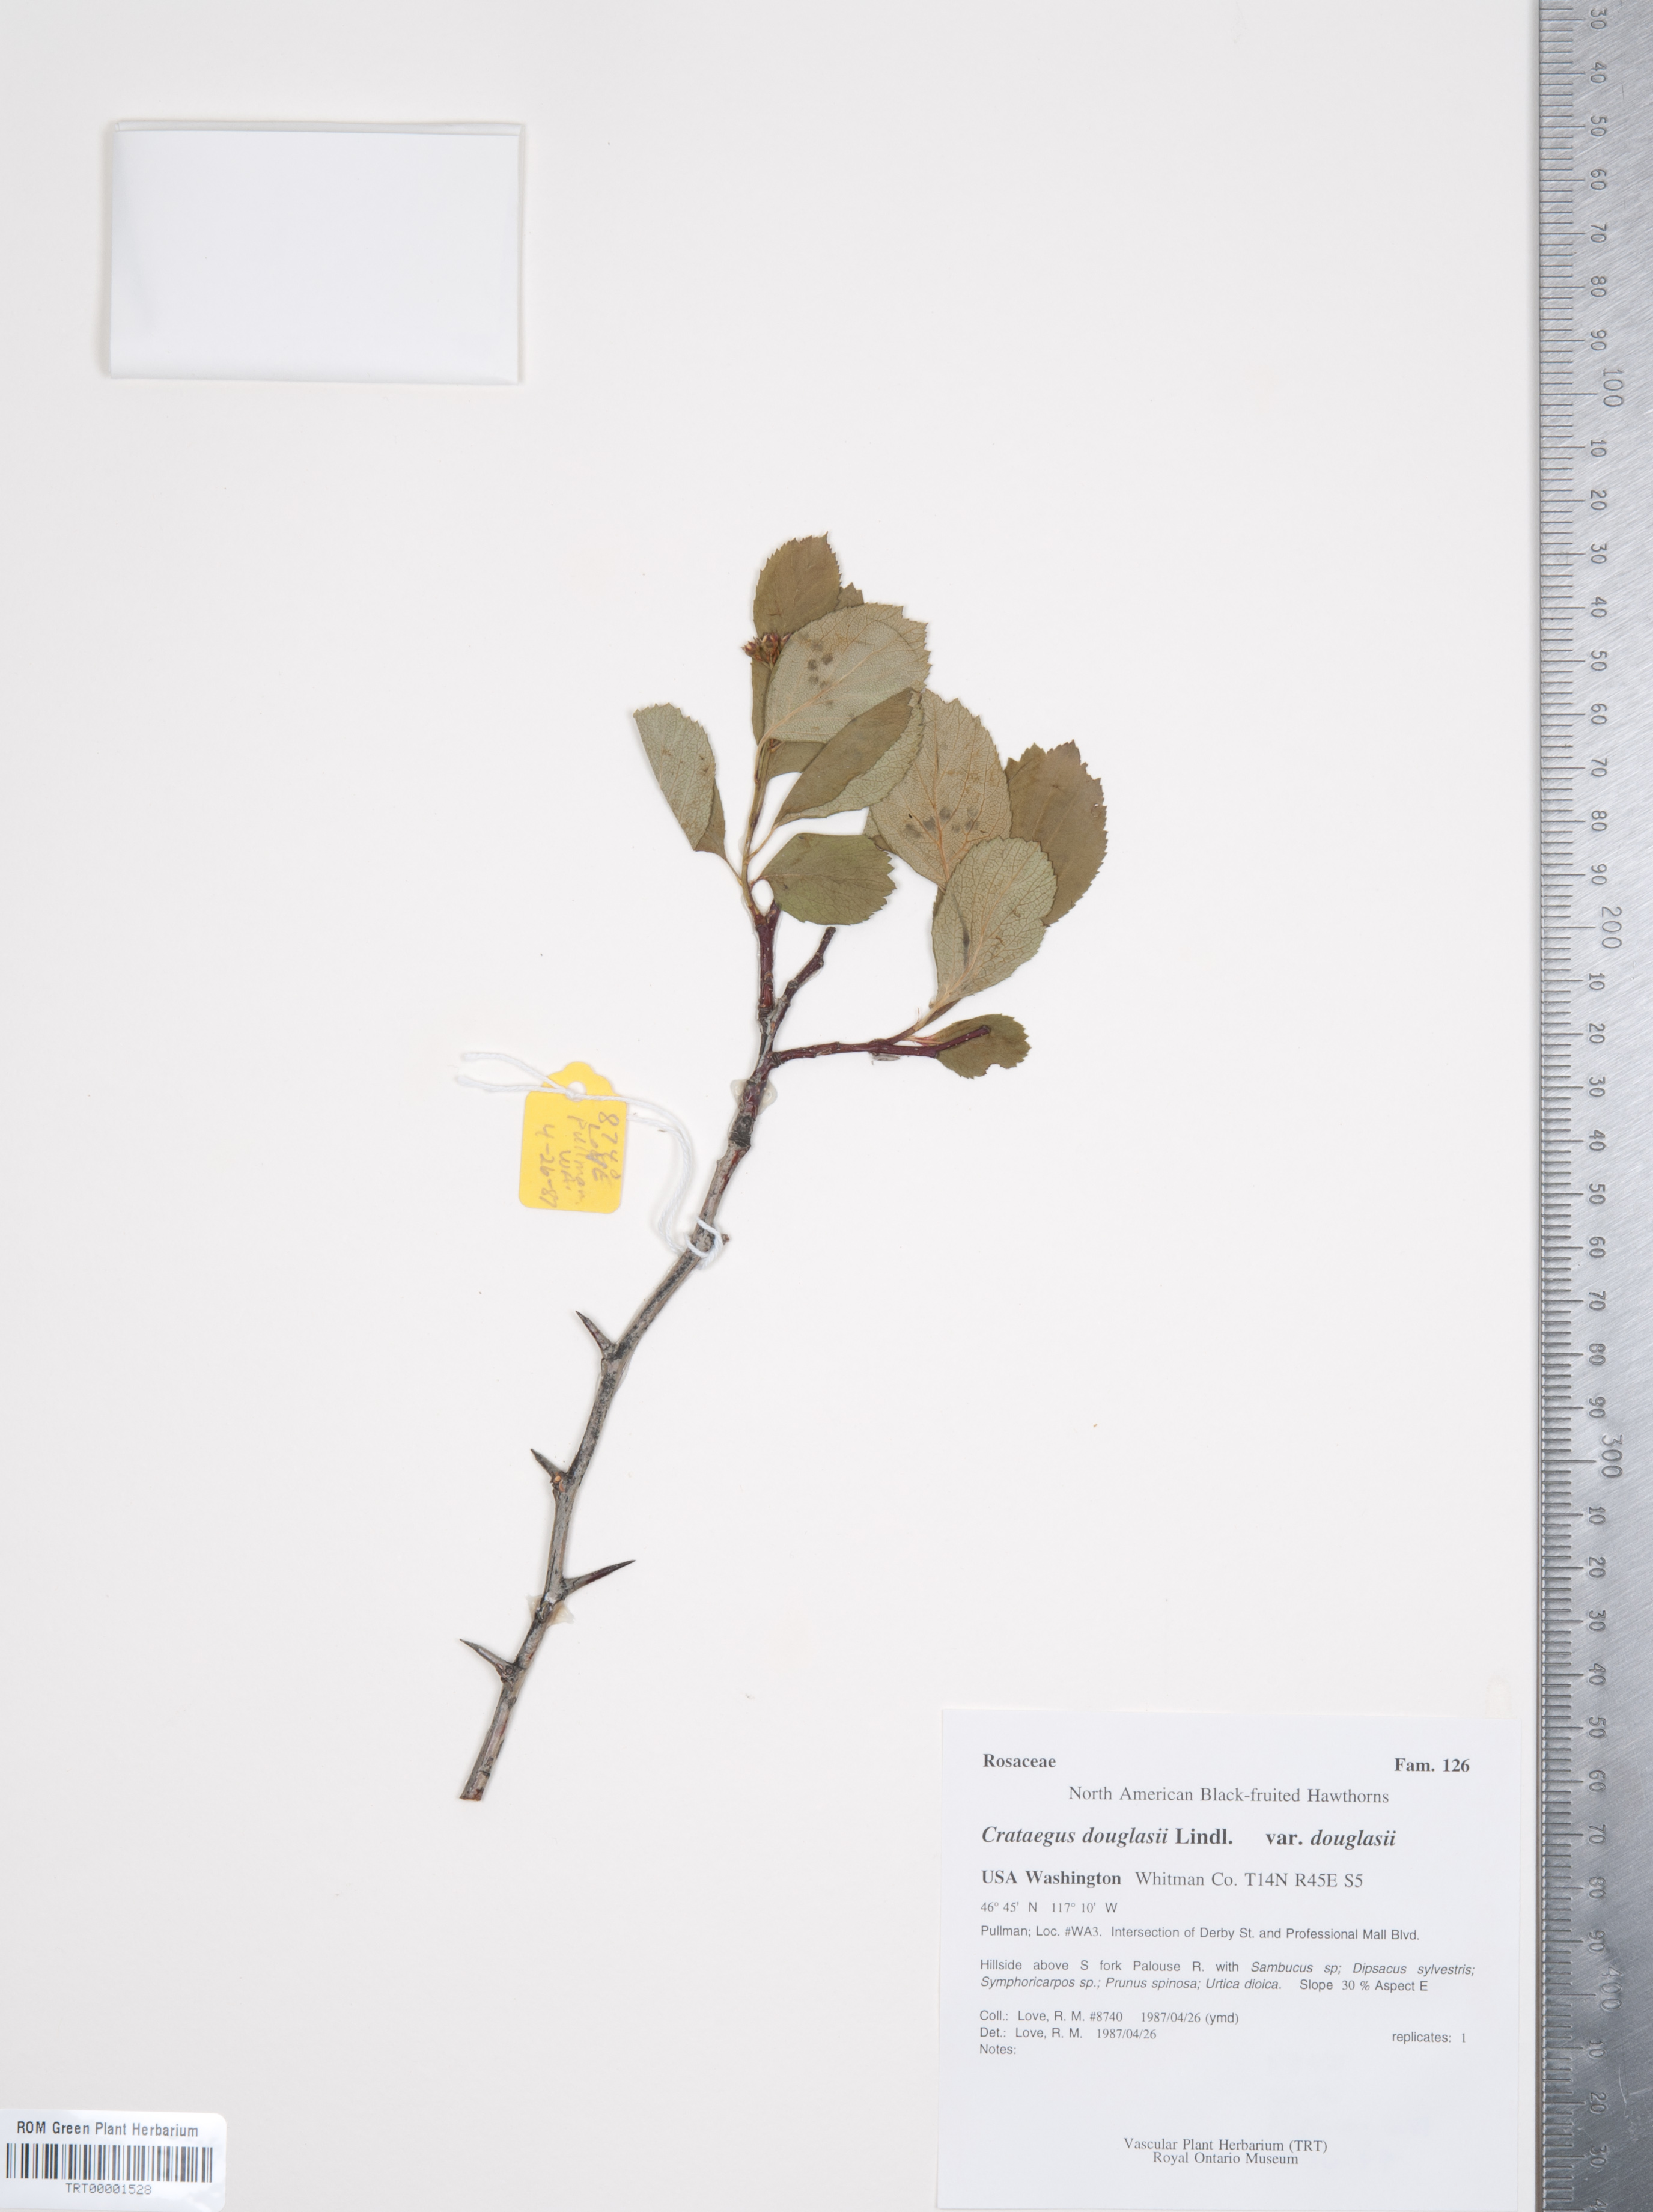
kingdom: Plantae
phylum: Tracheophyta
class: Magnoliopsida
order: Rosales
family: Rosaceae
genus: Crataegus
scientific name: Crataegus douglasii
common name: Black hawthorn
